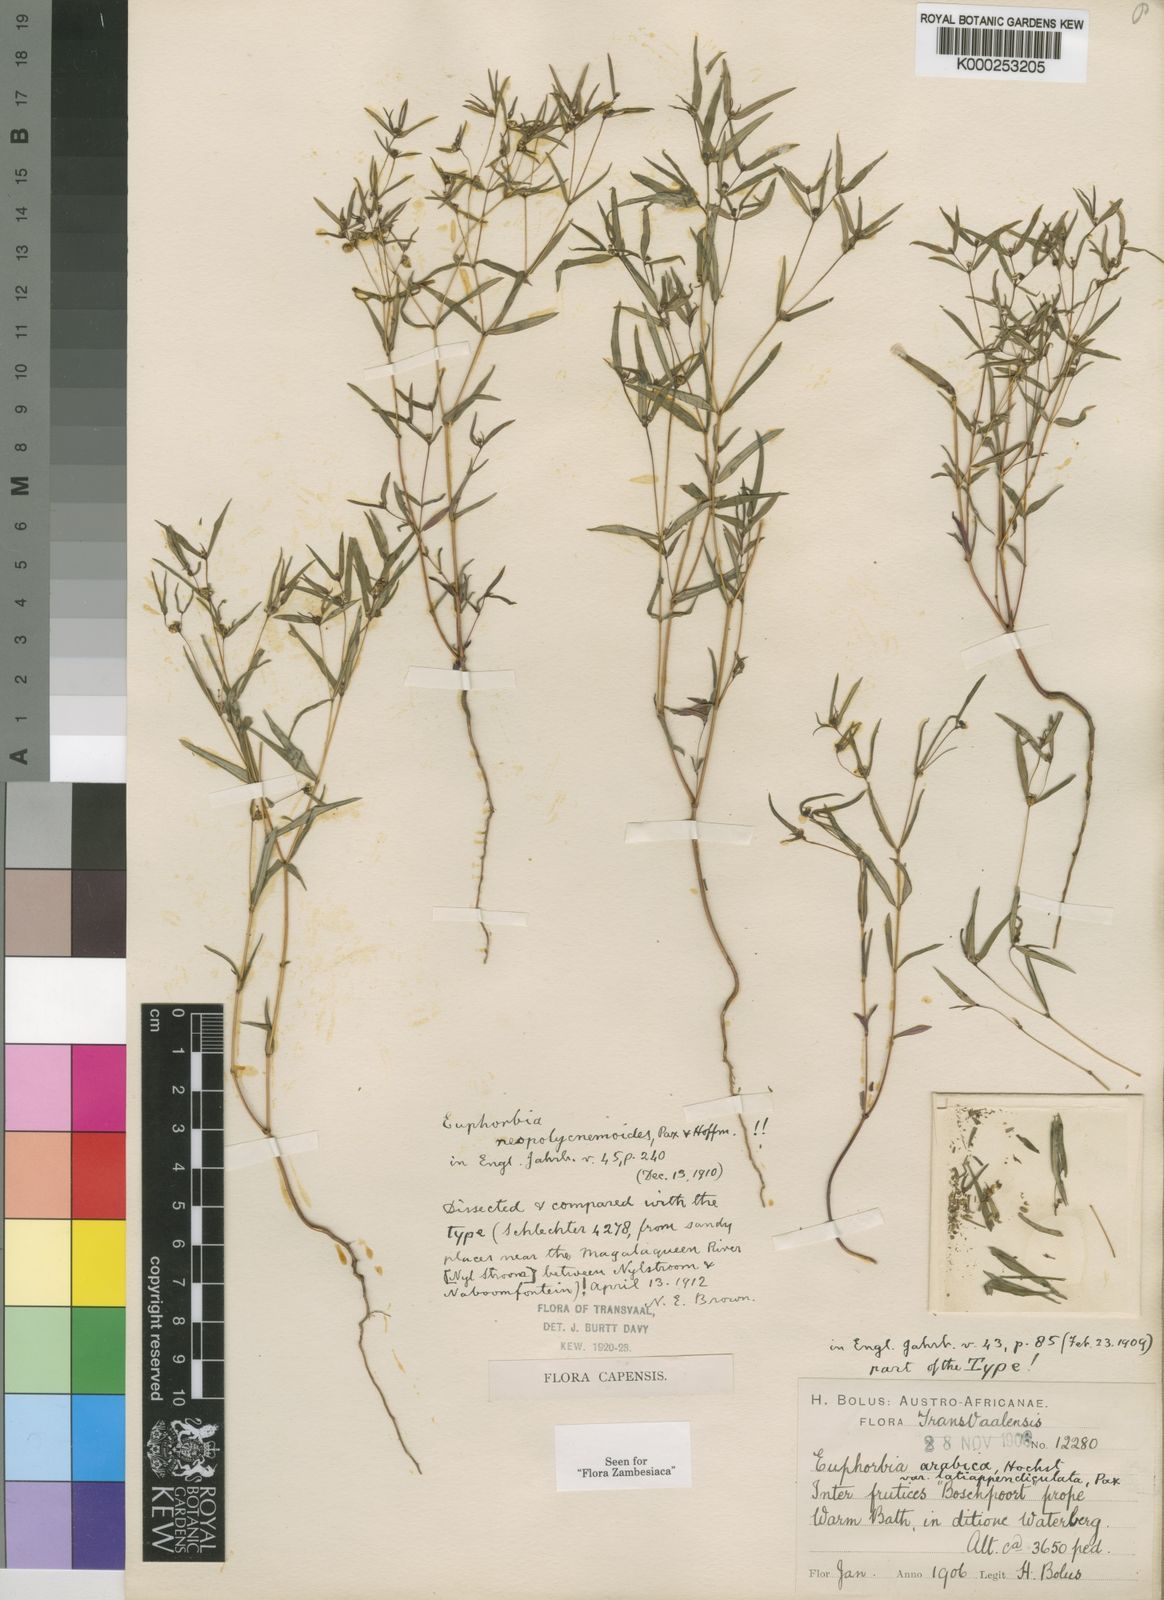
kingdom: Plantae
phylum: Tracheophyta
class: Magnoliopsida
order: Malpighiales
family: Euphorbiaceae
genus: Euphorbia
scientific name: Euphorbia neopolycnemoides
